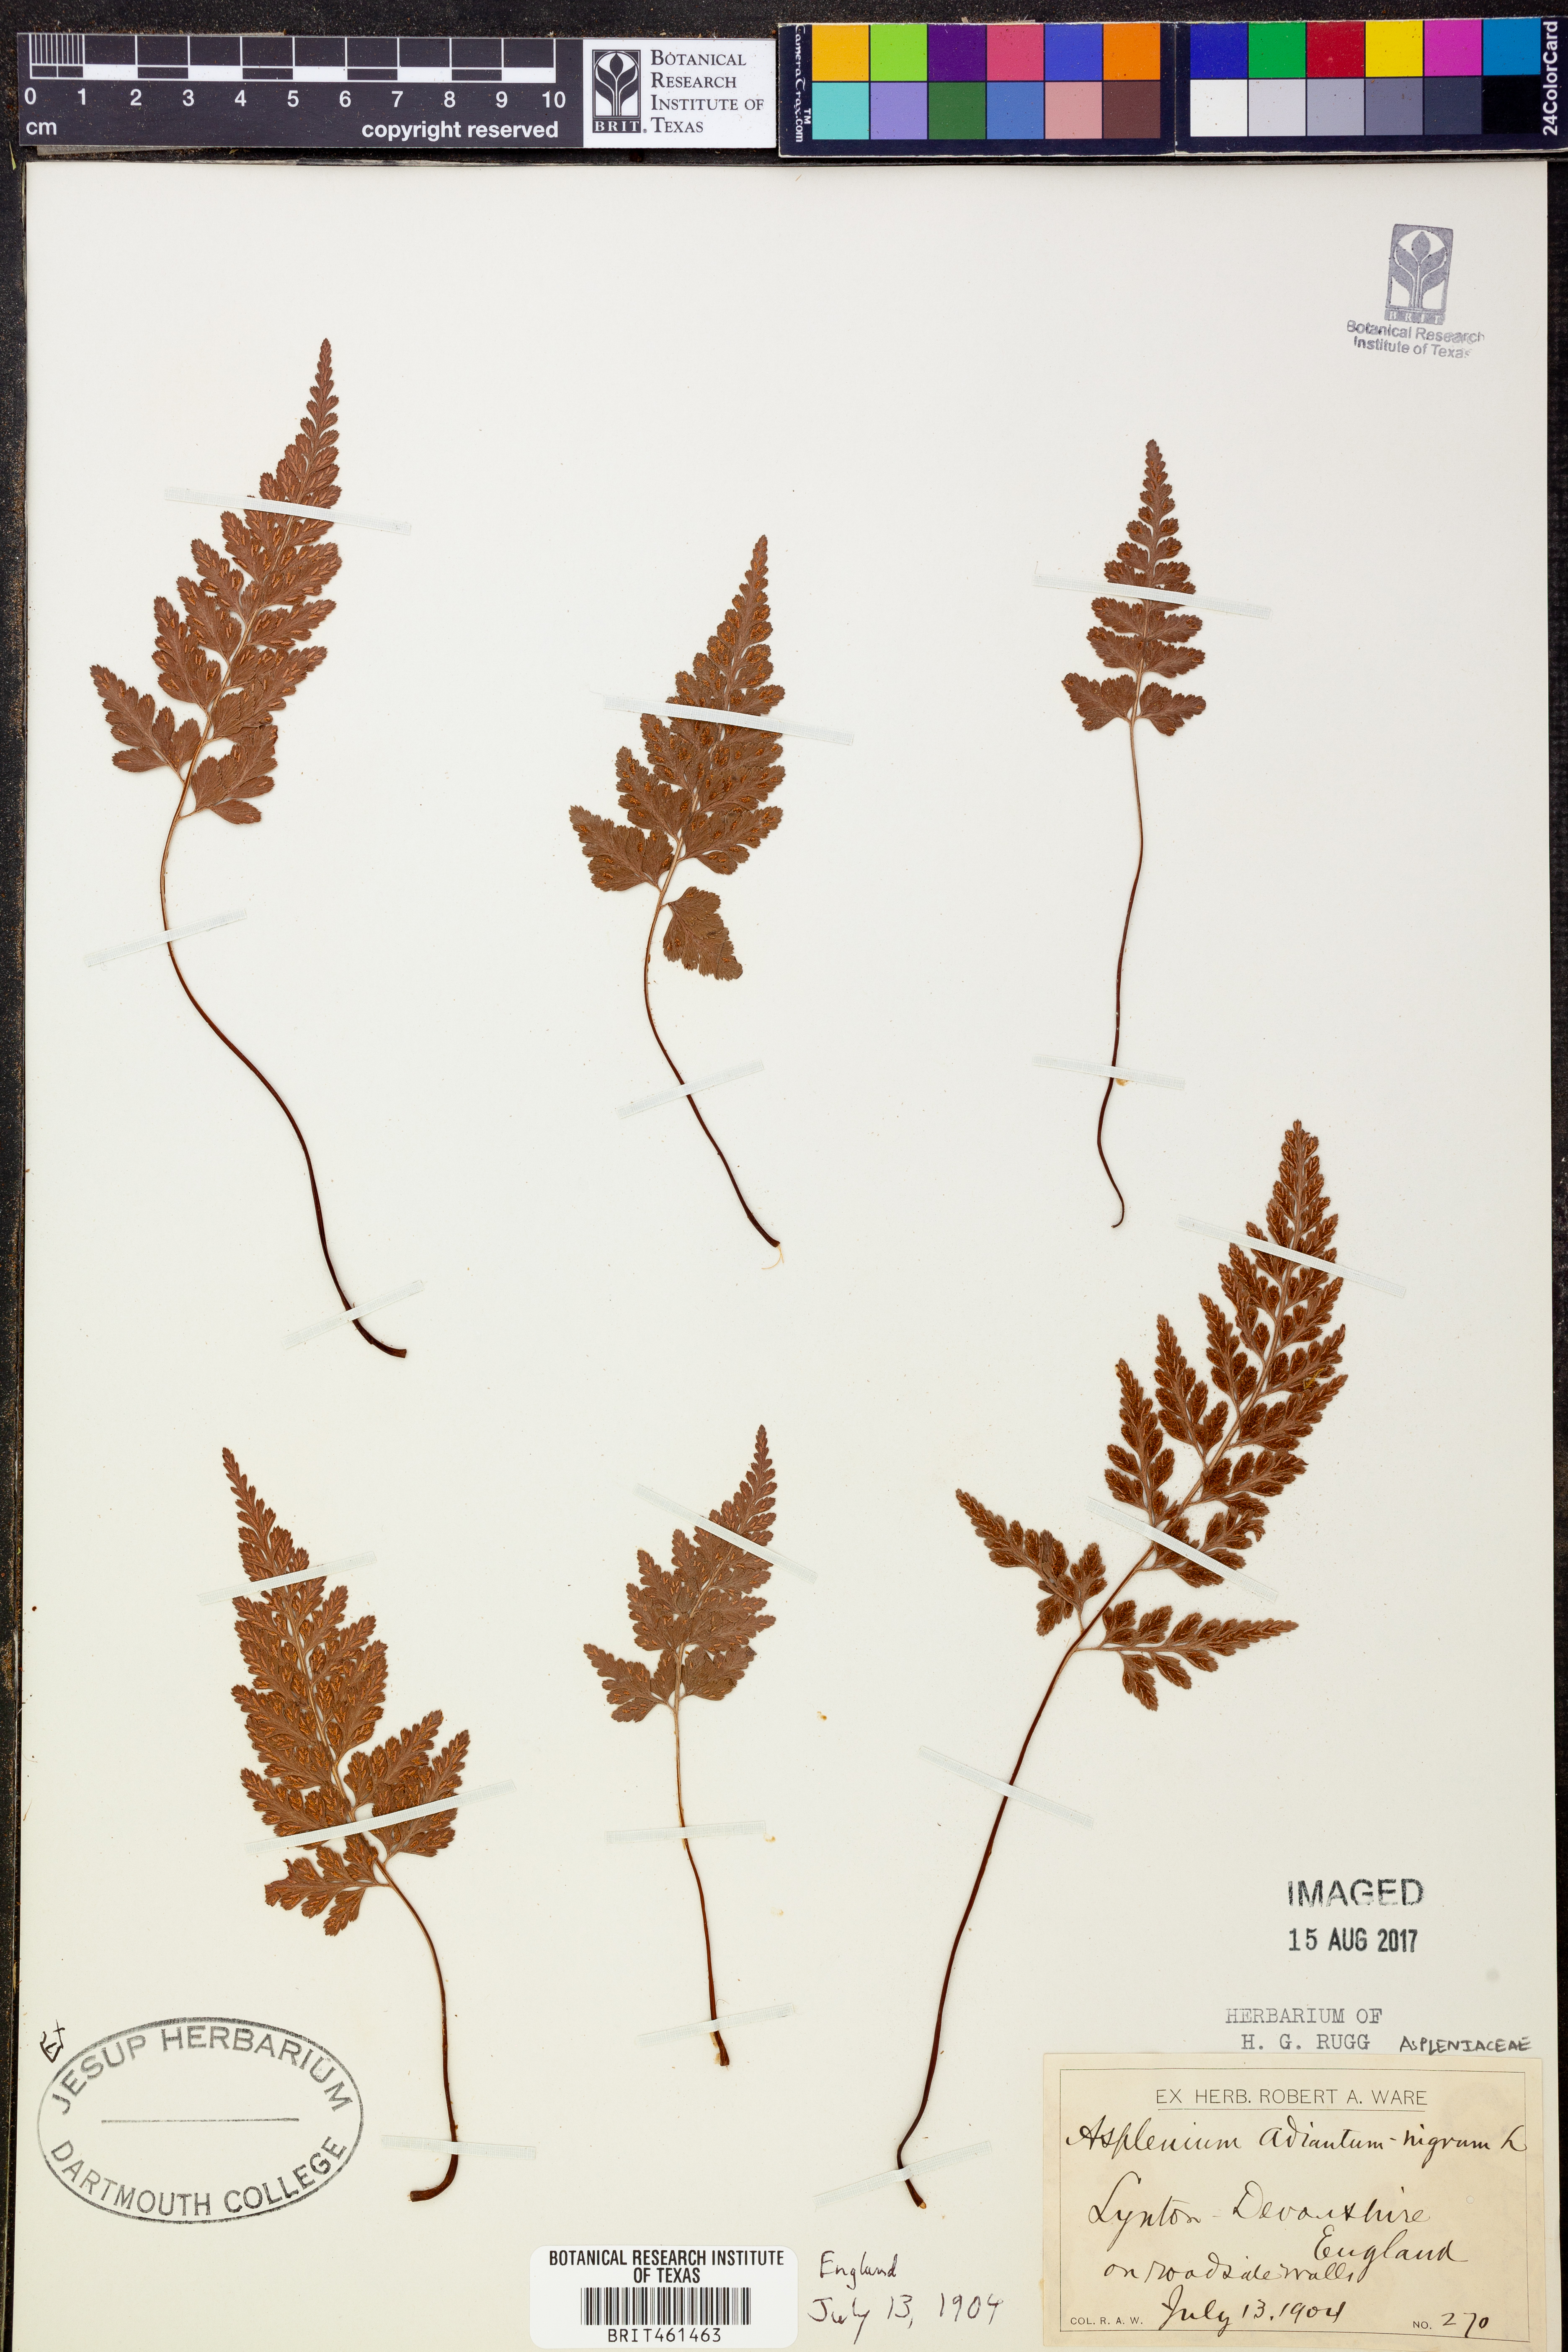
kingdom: Plantae
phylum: Tracheophyta
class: Polypodiopsida
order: Polypodiales
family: Aspleniaceae
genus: Asplenium
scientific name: Asplenium adiantum-nigrum
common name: Black spleenwort
